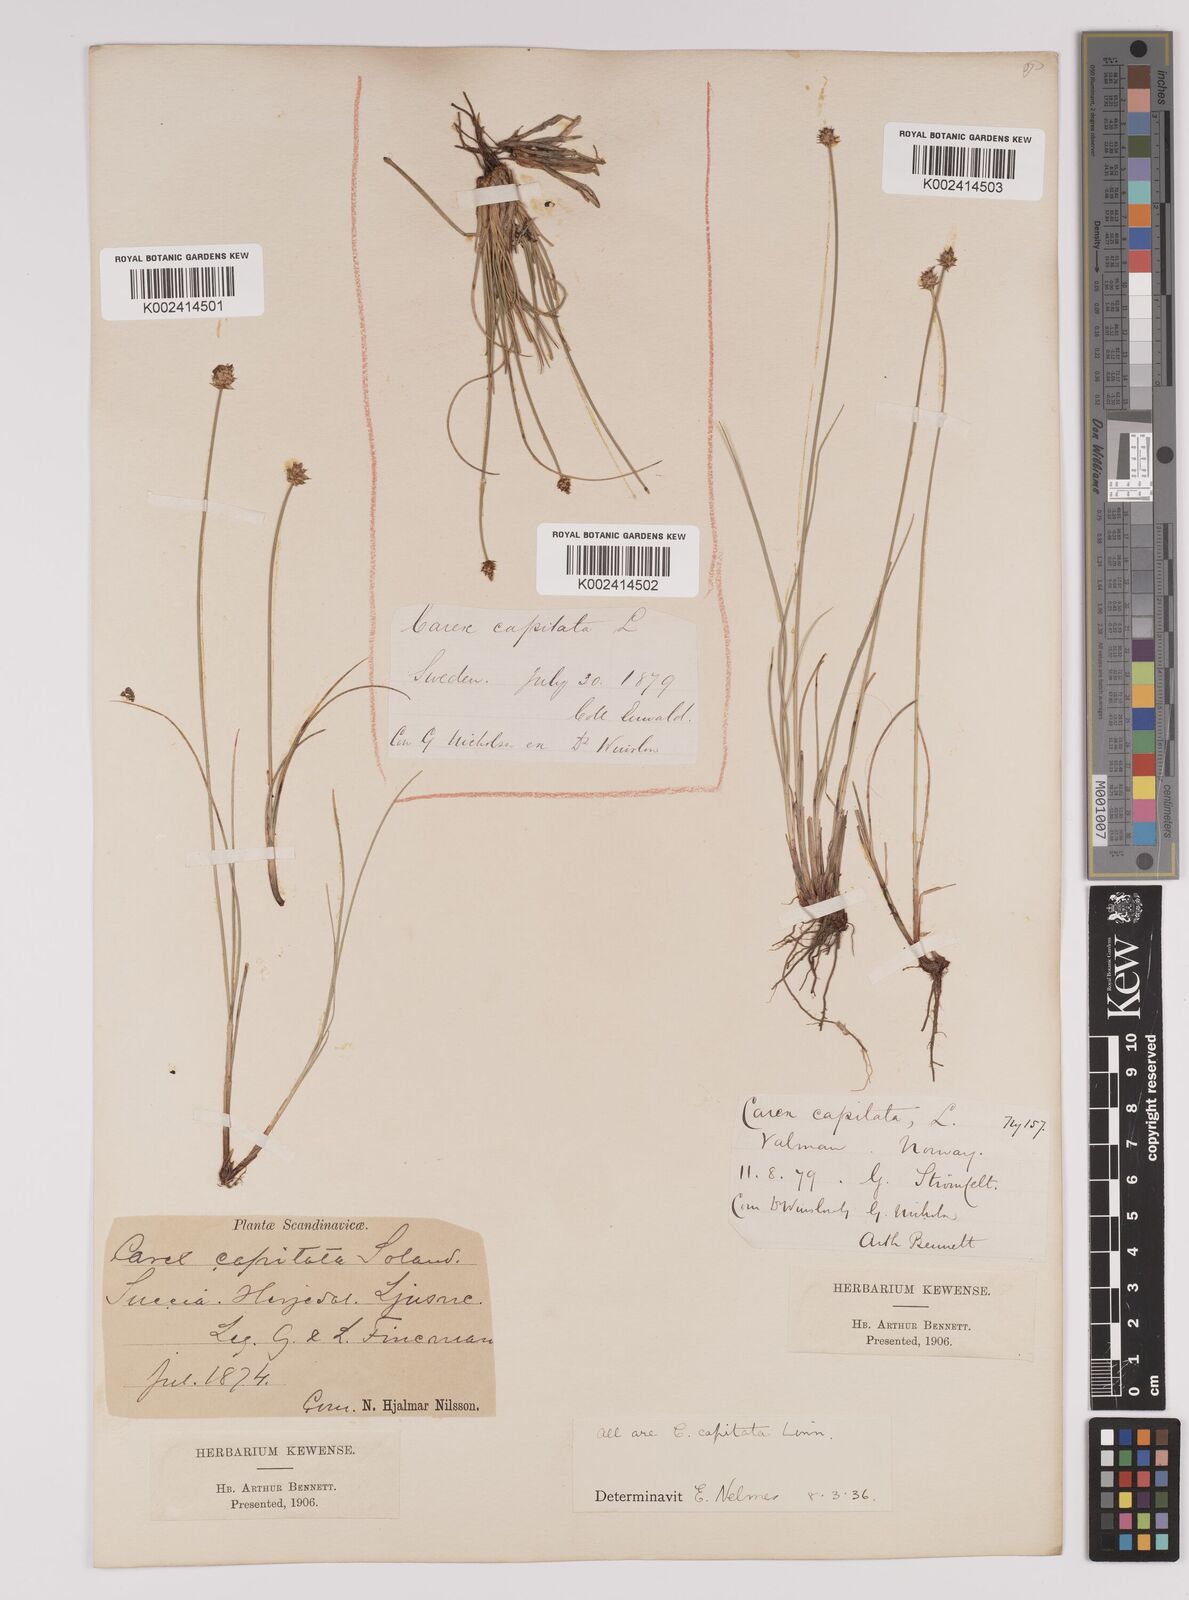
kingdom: Plantae
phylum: Tracheophyta
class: Liliopsida
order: Poales
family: Cyperaceae
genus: Carex
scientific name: Carex capitata
